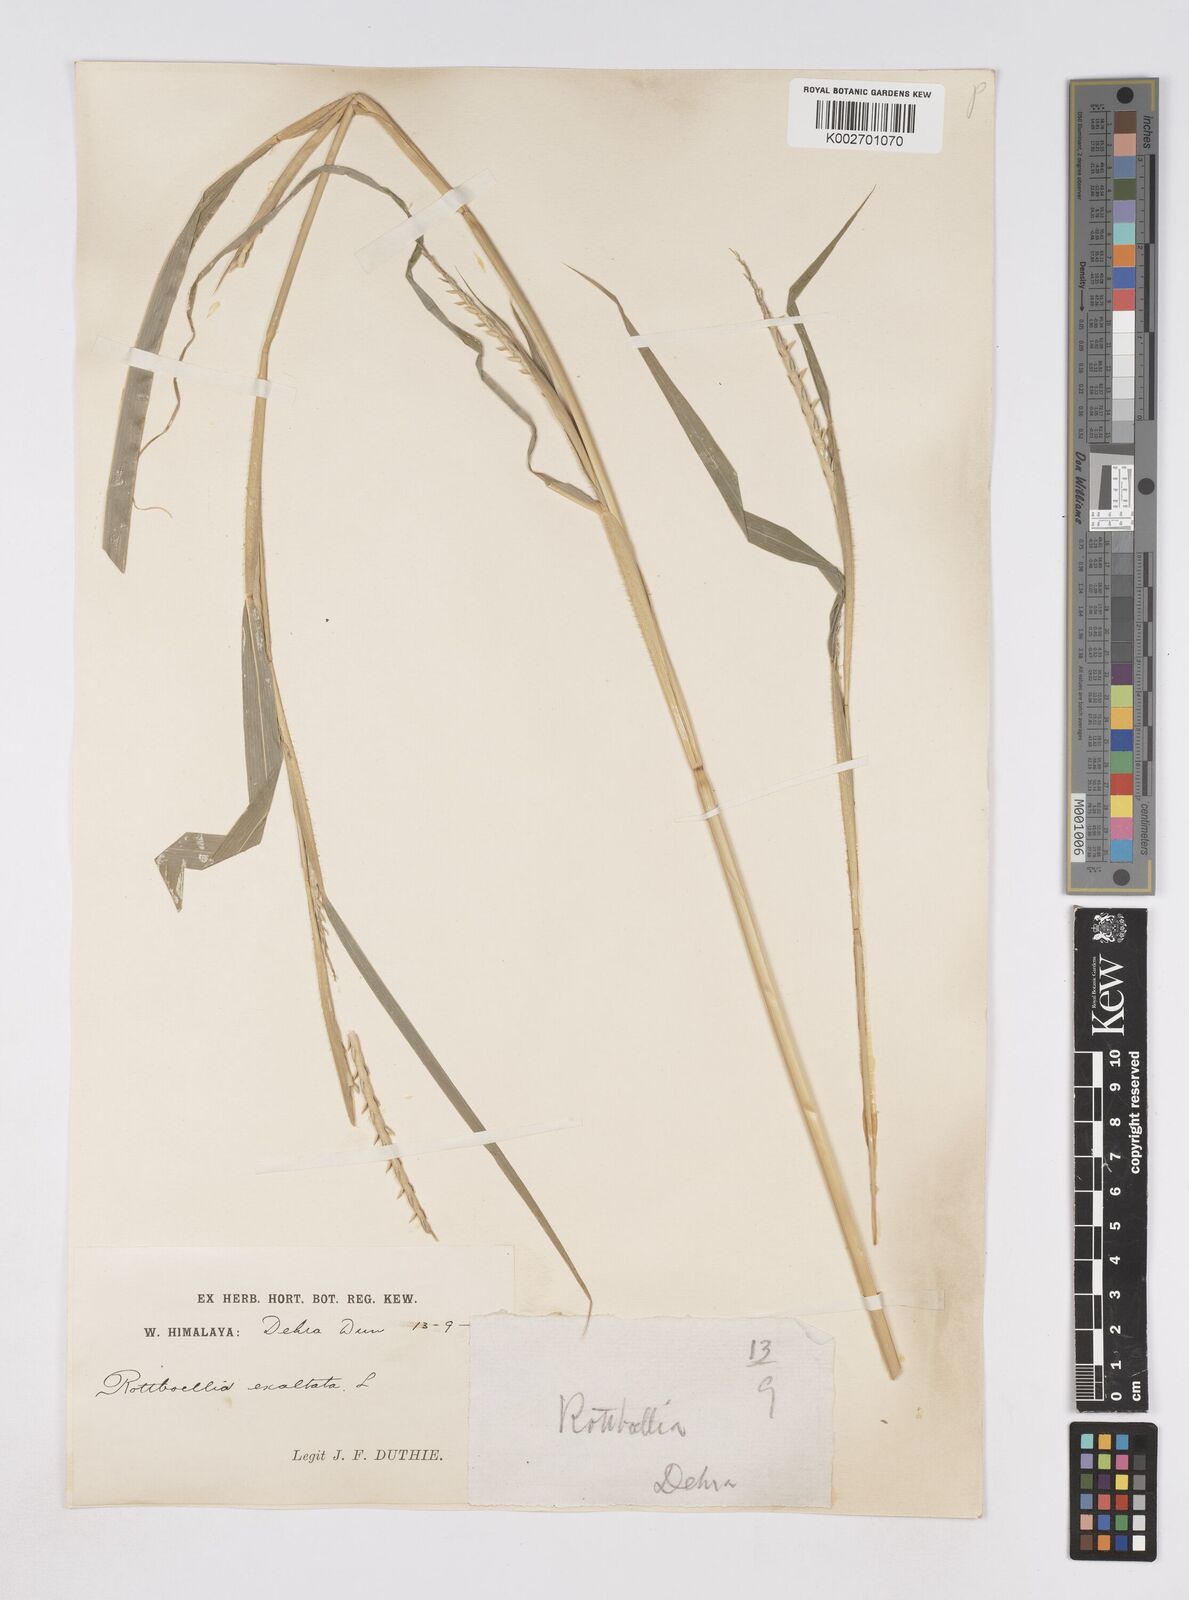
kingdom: Plantae
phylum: Tracheophyta
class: Liliopsida
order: Poales
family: Poaceae
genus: Ophiuros
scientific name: Ophiuros exaltatus
